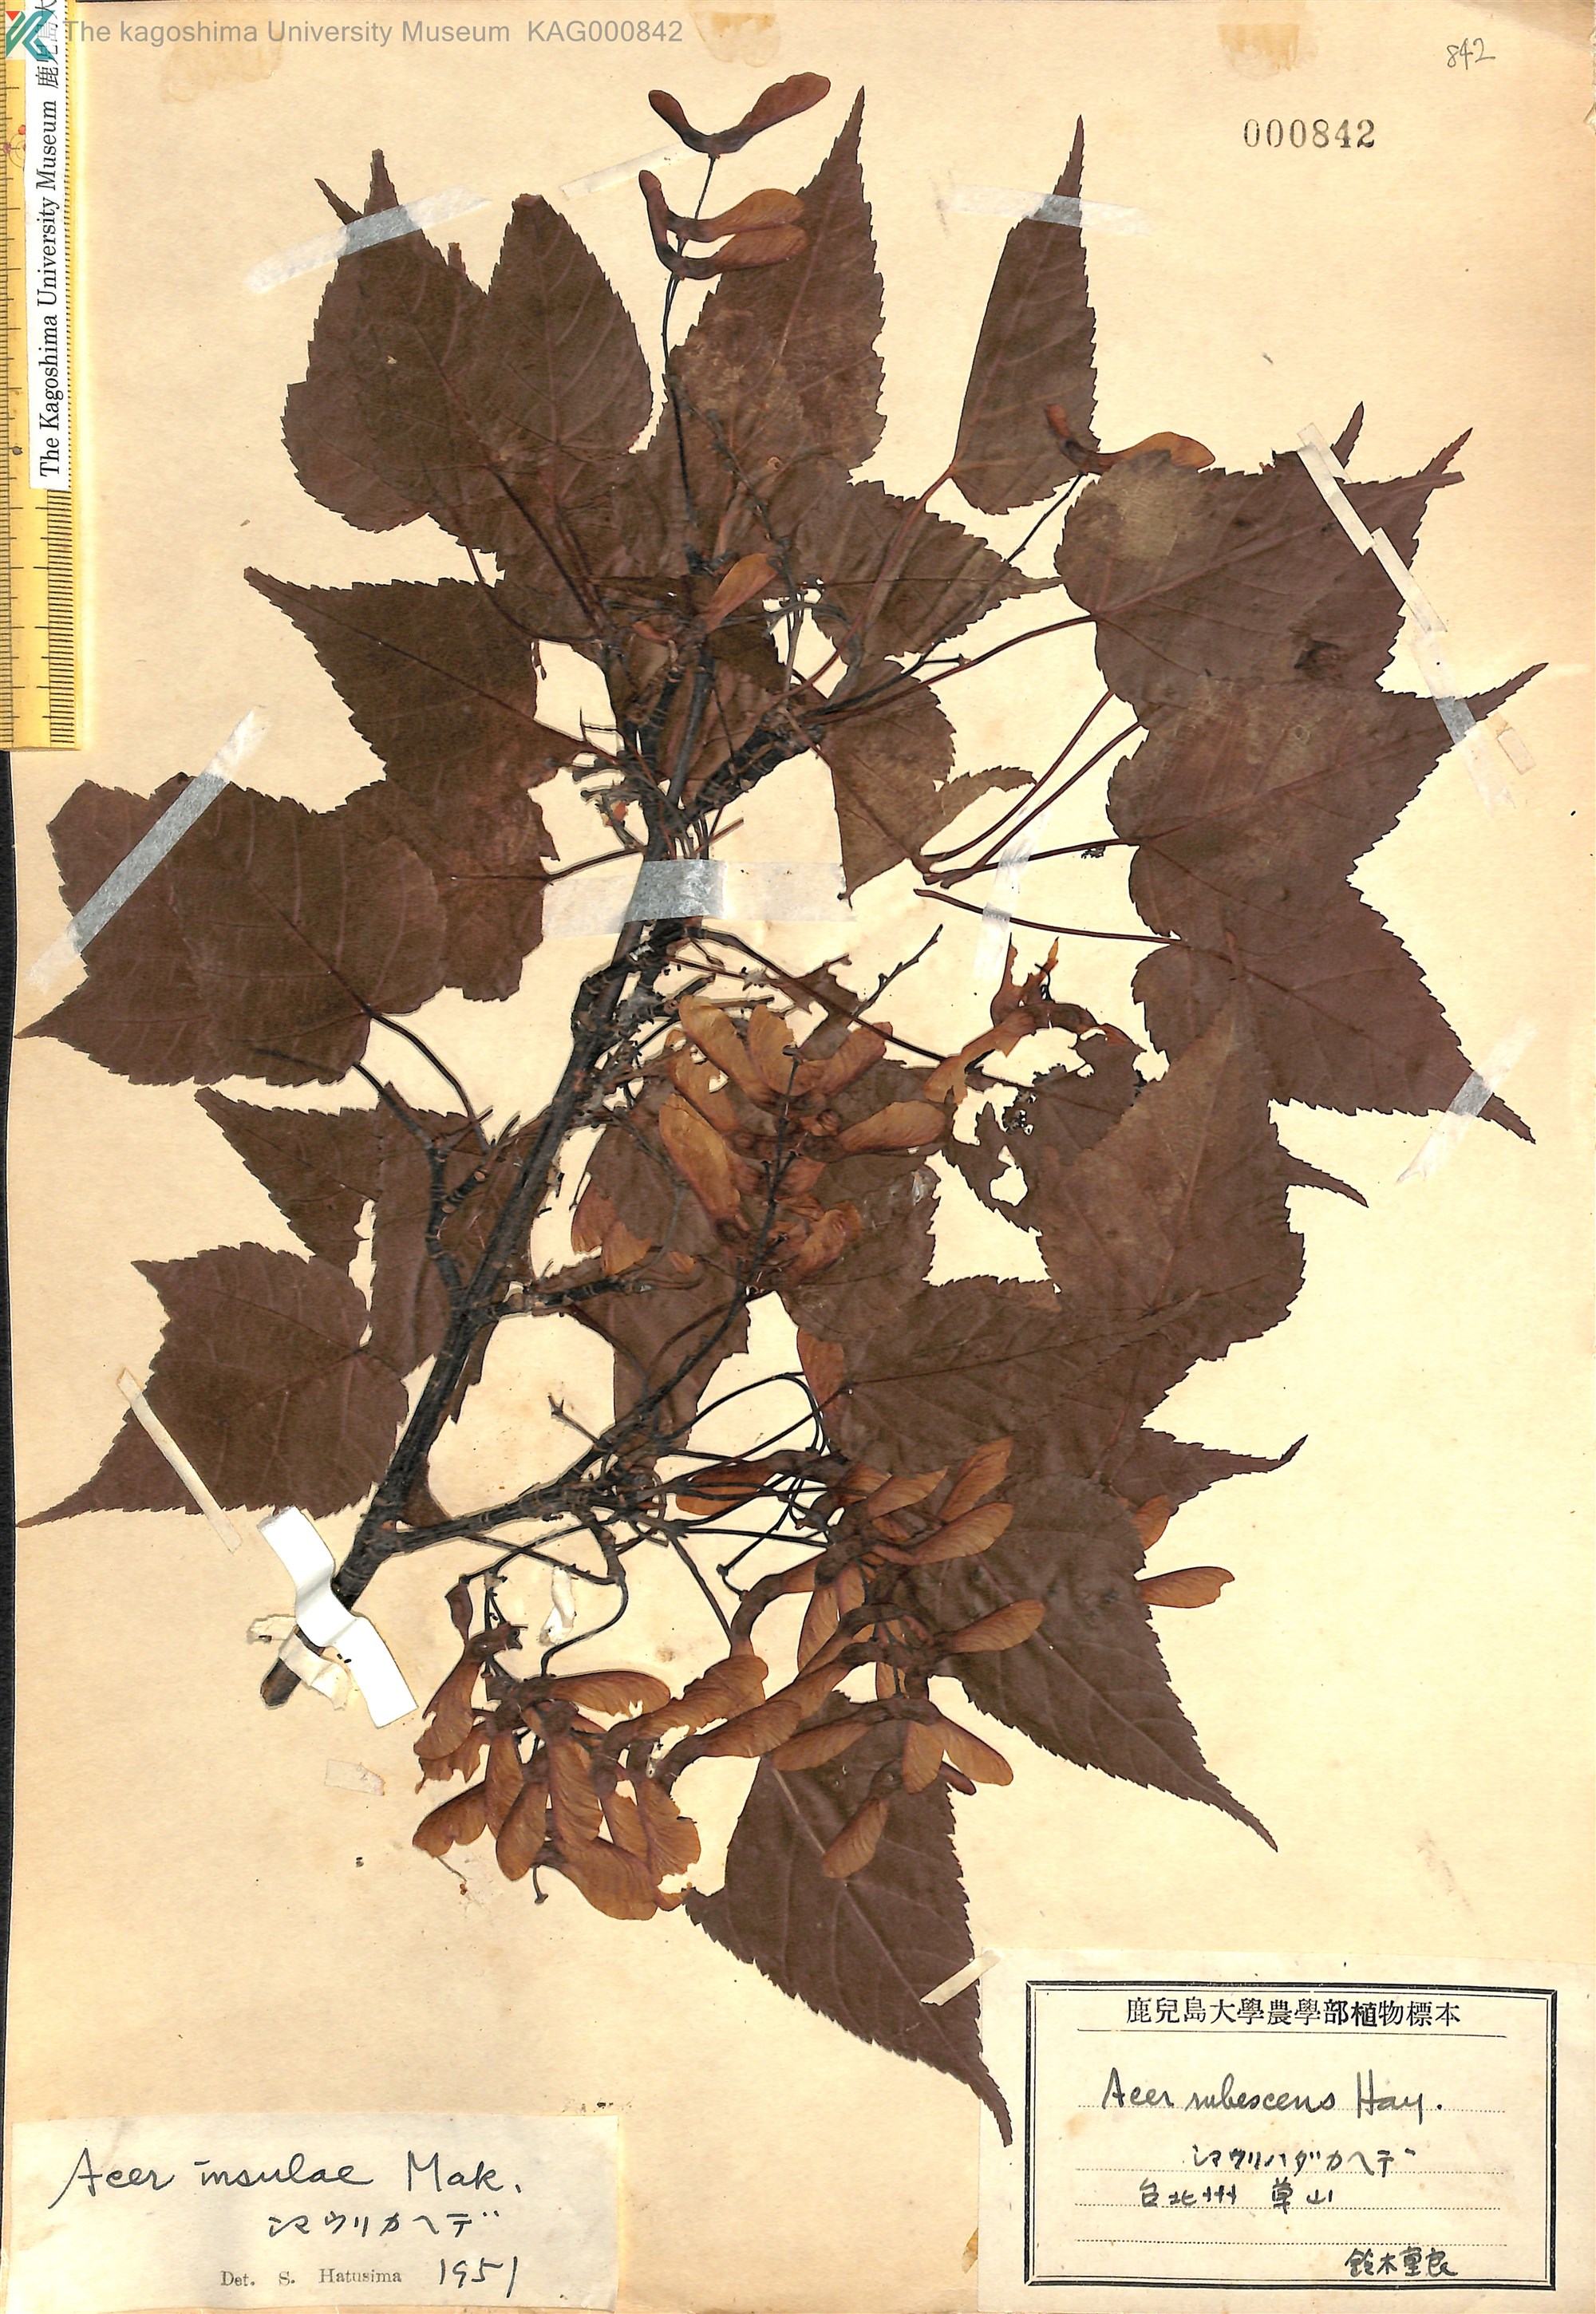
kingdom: Plantae
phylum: Tracheophyta
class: Magnoliopsida
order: Sapindales
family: Sapindaceae
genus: Acer
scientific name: Acer caudatifolium
